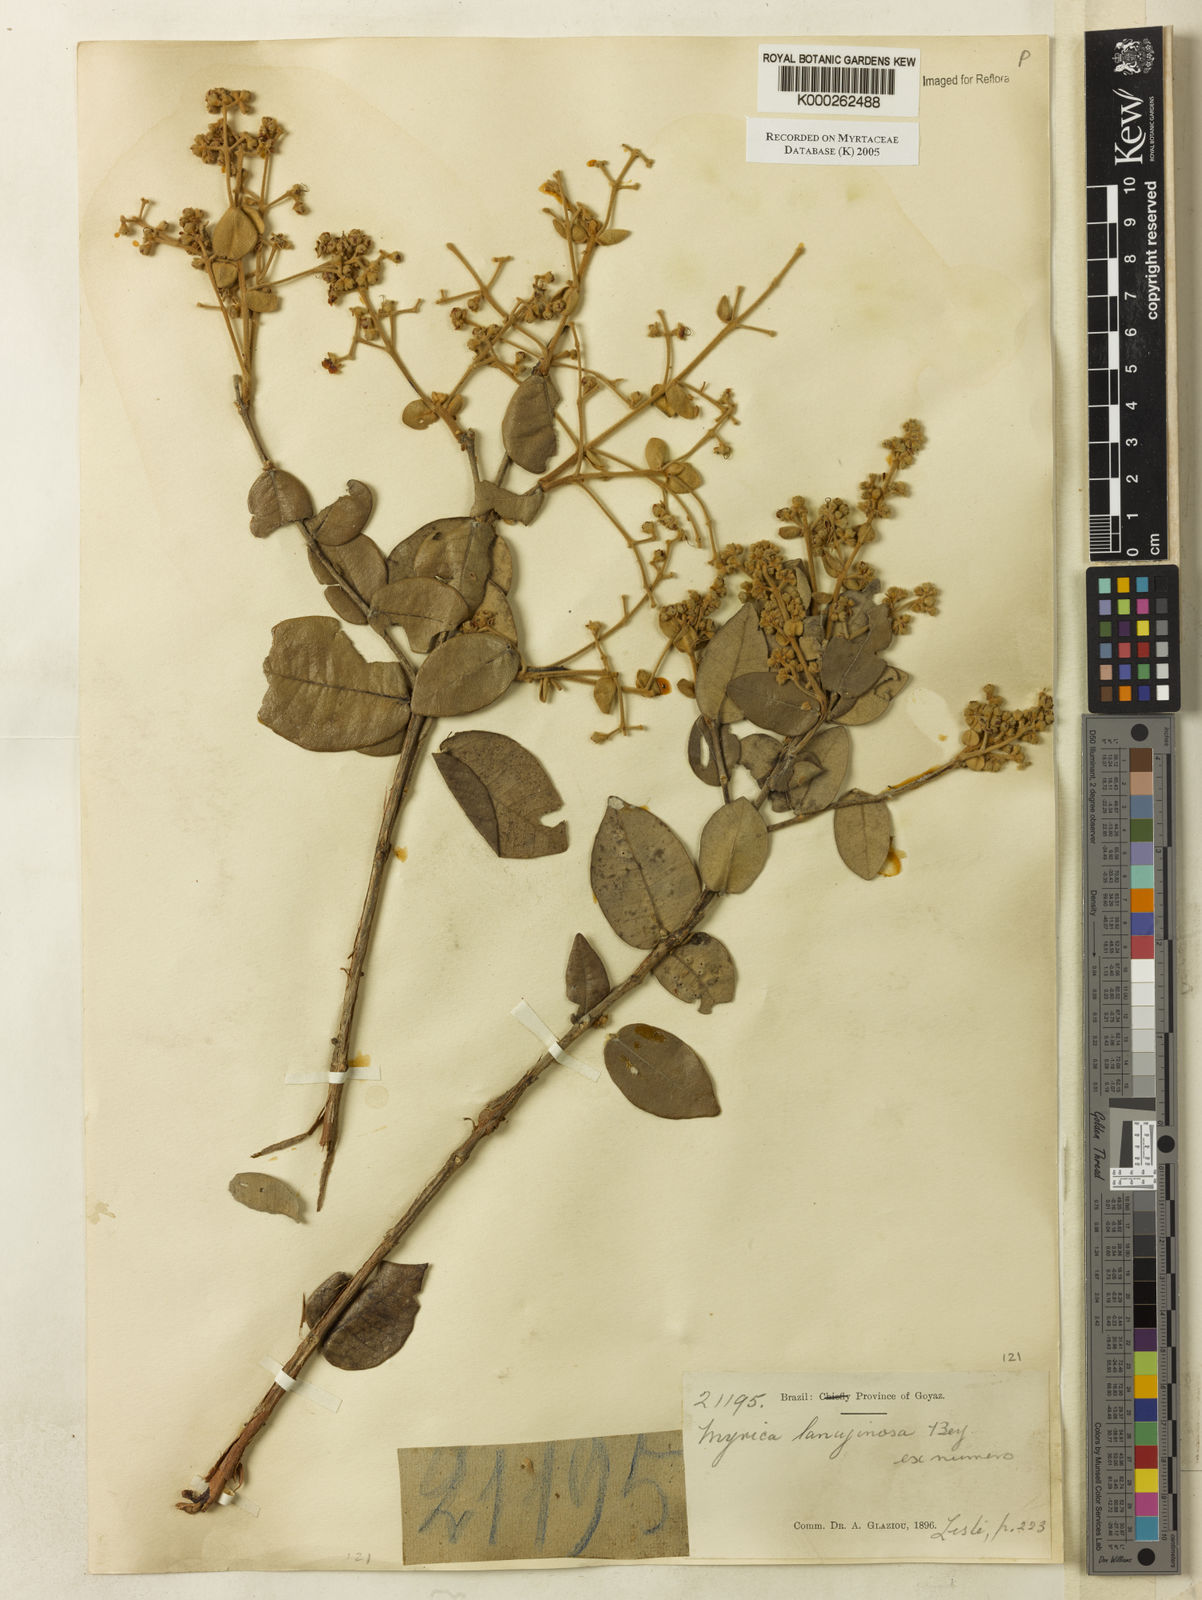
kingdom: Plantae
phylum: Tracheophyta
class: Magnoliopsida
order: Myrtales
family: Myrtaceae
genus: Myrcia
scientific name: Myrcia lanuginosa
